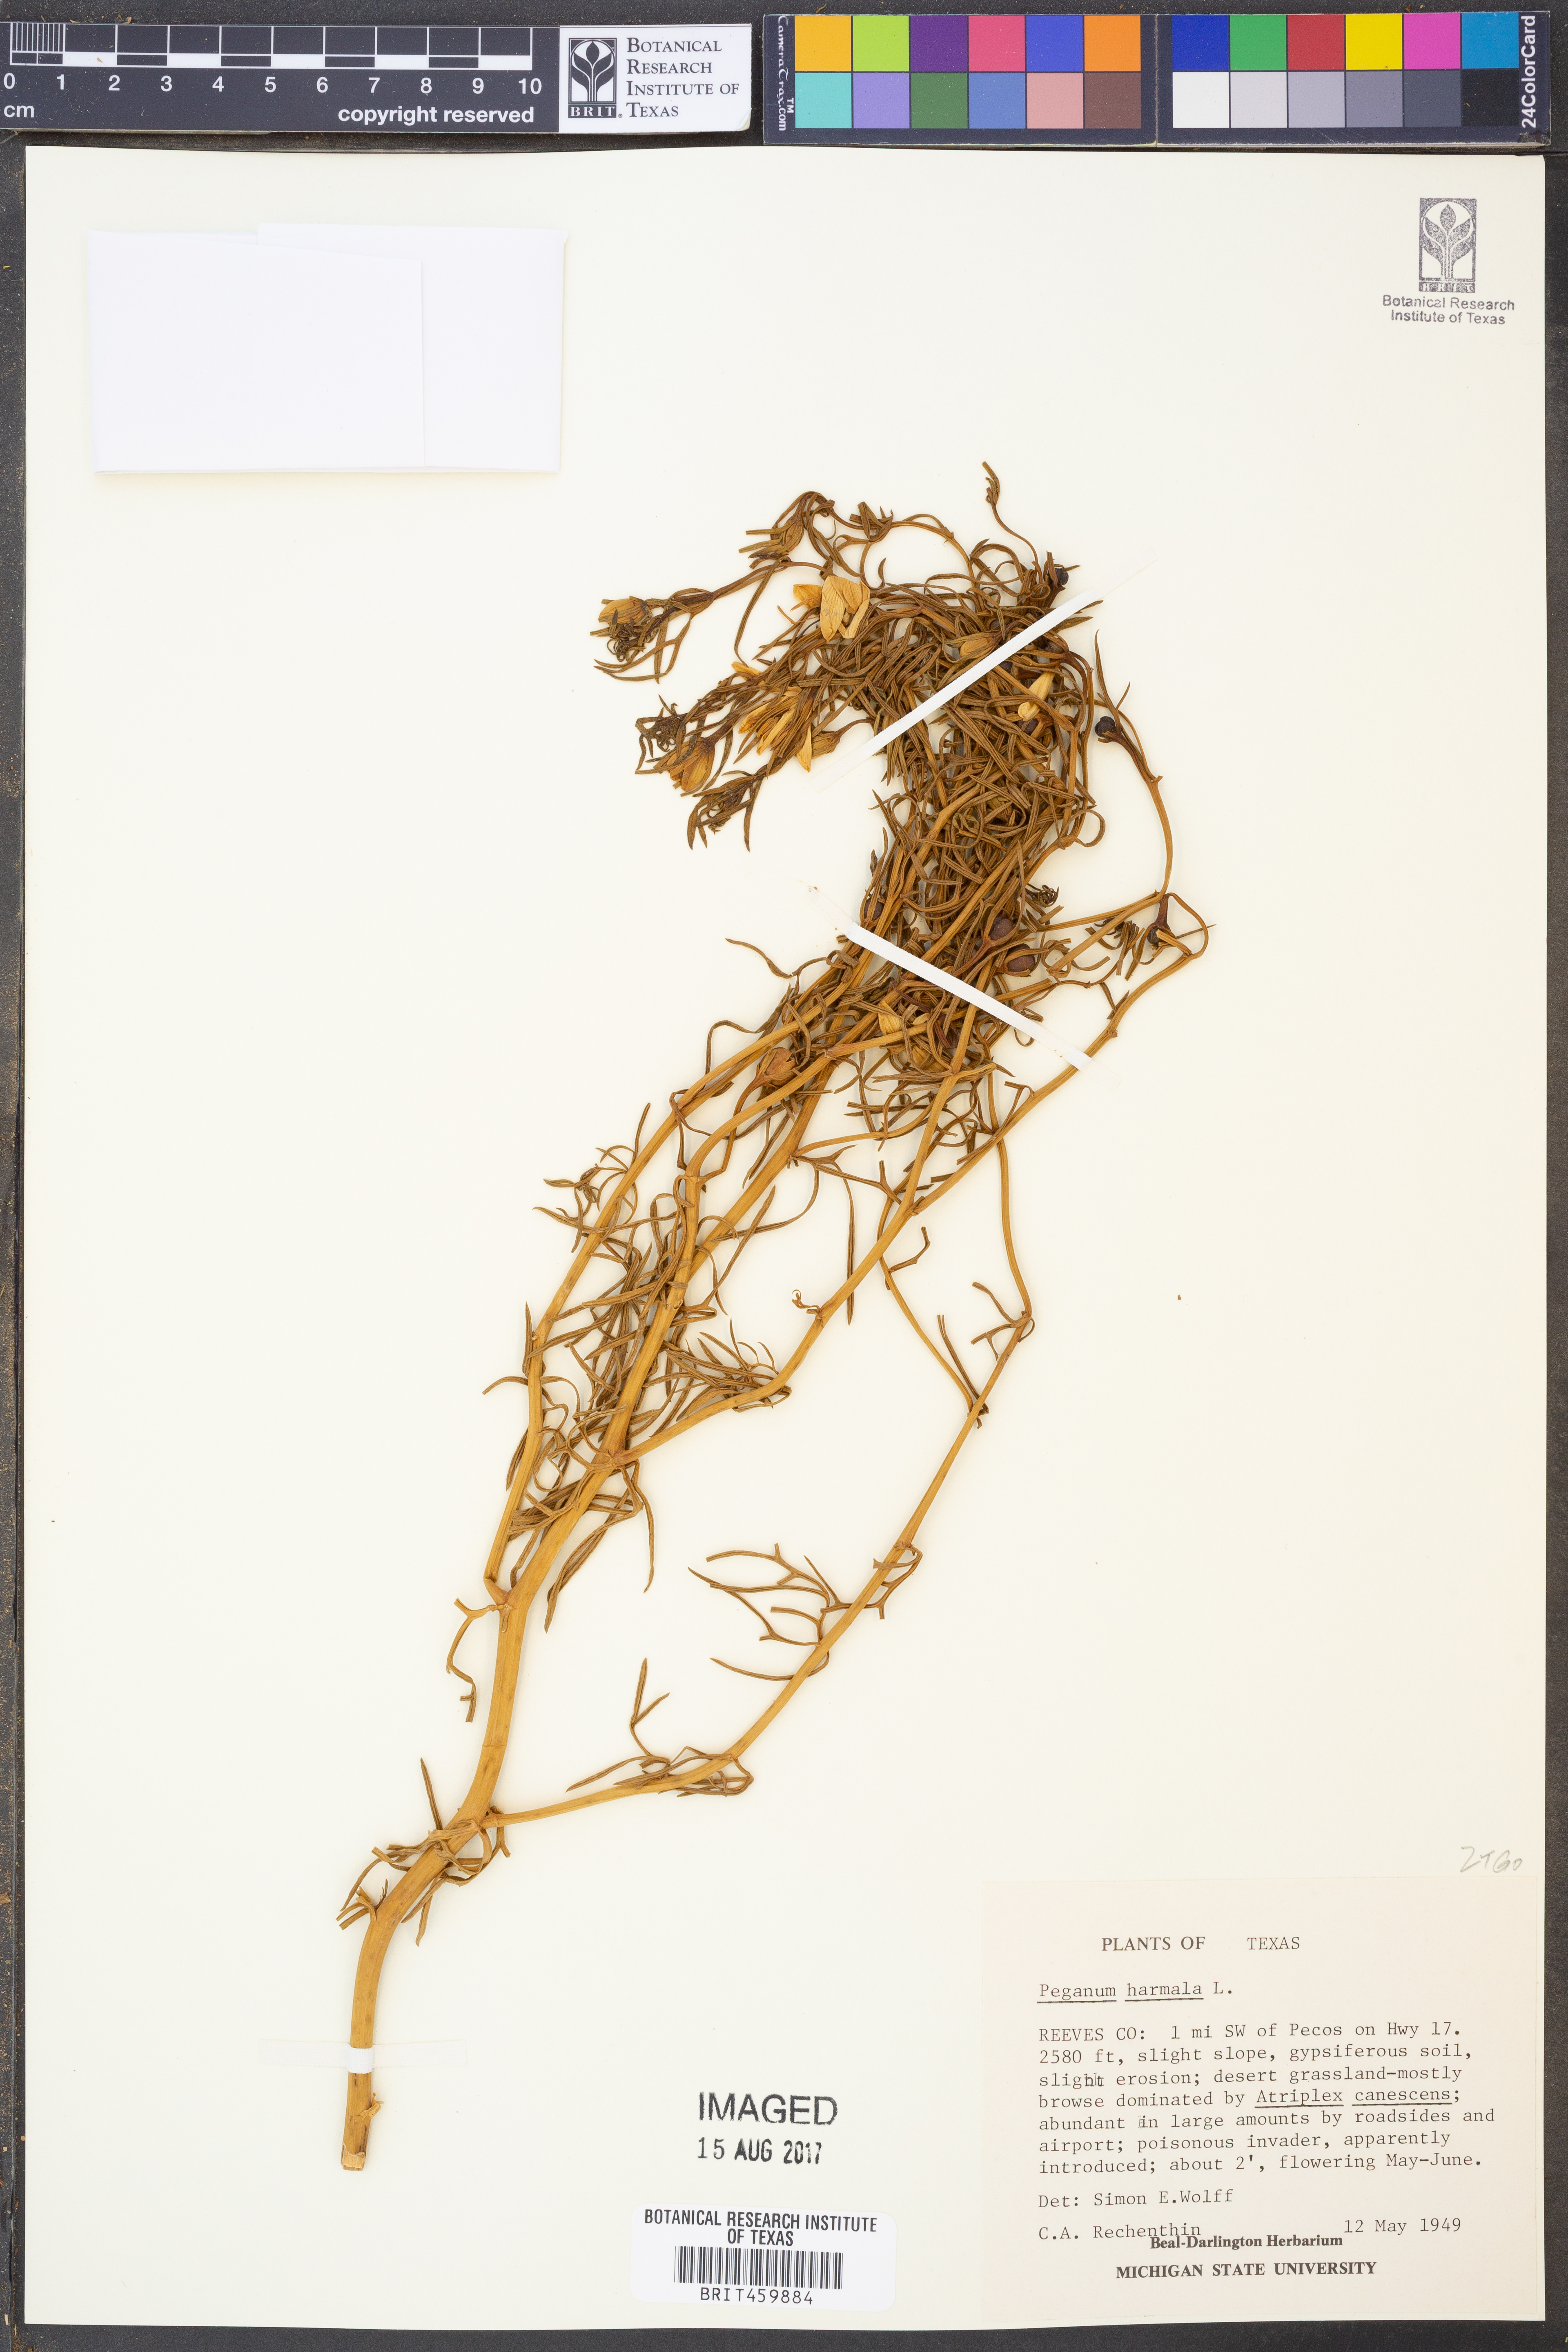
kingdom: Plantae
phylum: Tracheophyta
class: Magnoliopsida
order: Sapindales
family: Tetradiclidaceae
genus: Peganum
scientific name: Peganum harmala
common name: Harmal peganum
